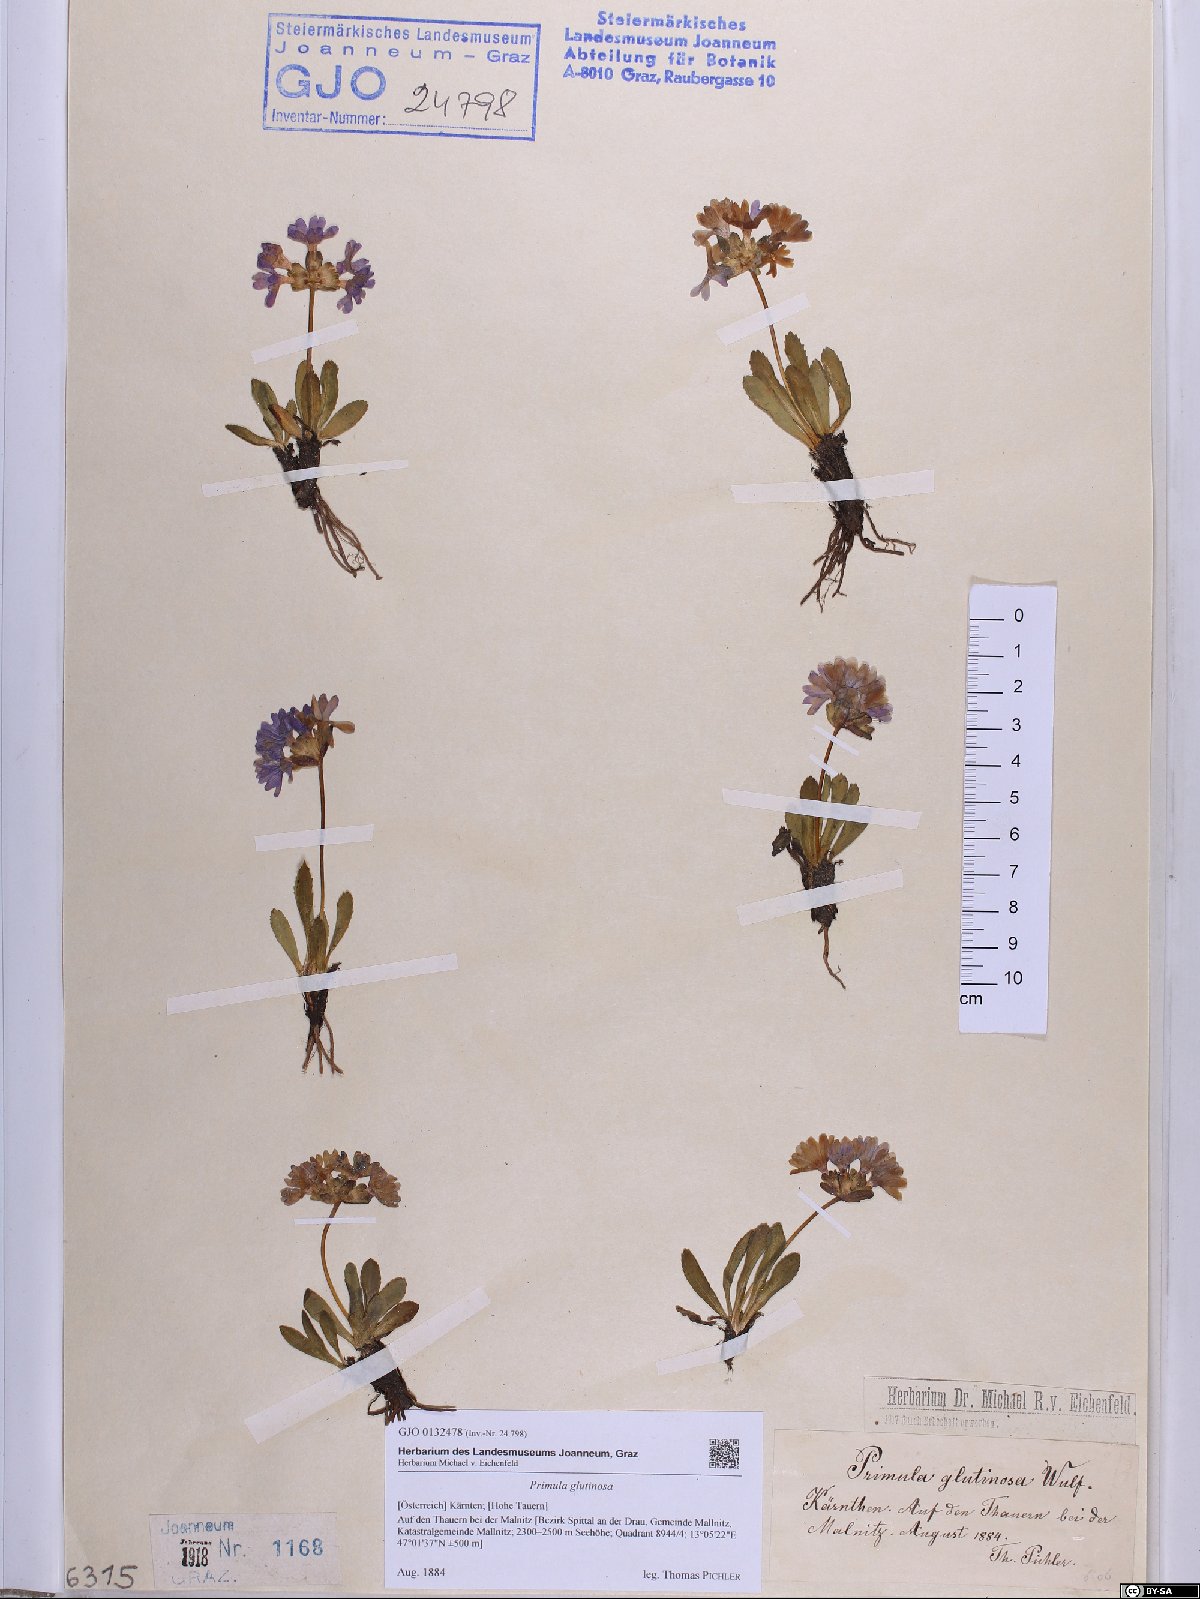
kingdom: Plantae
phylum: Tracheophyta
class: Magnoliopsida
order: Ericales
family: Primulaceae
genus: Primula
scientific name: Primula glutinosa
